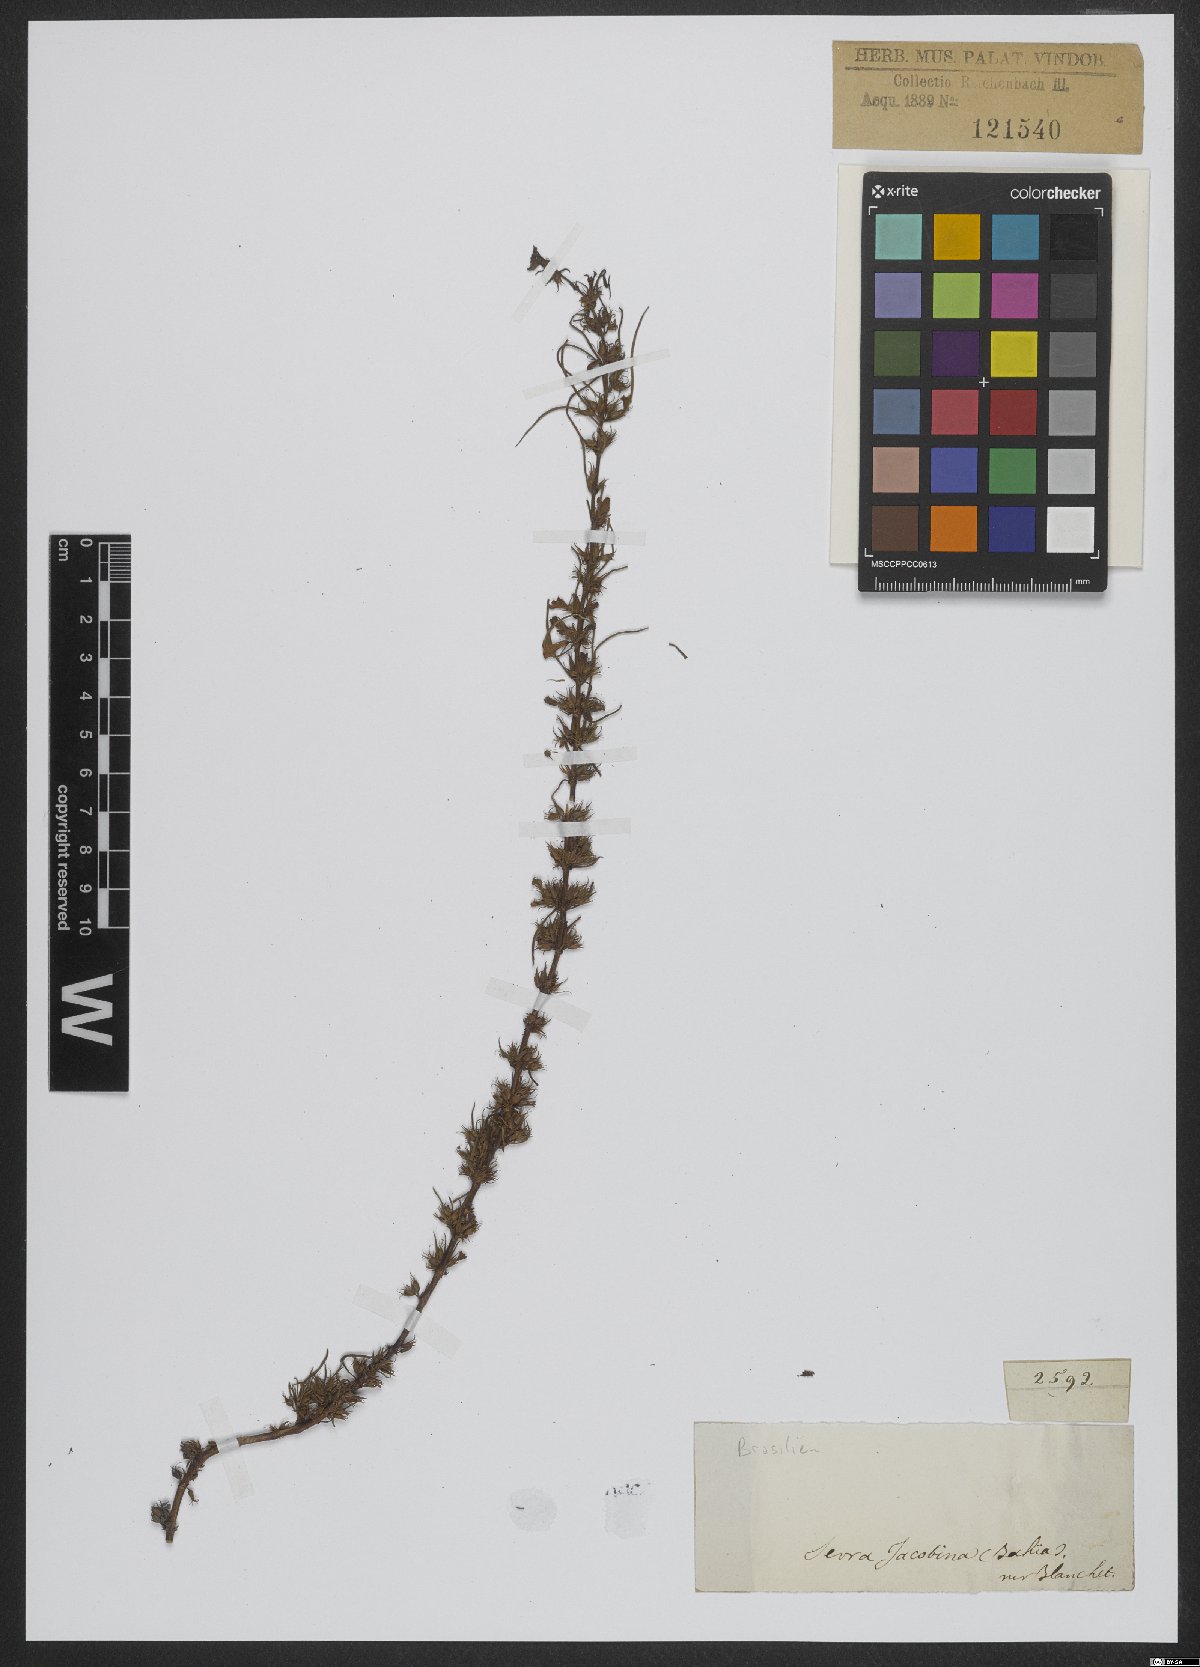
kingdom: Plantae
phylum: Tracheophyta
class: Magnoliopsida
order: Lamiales
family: Plantaginaceae
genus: Bacopa
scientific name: Bacopa gratioloides
